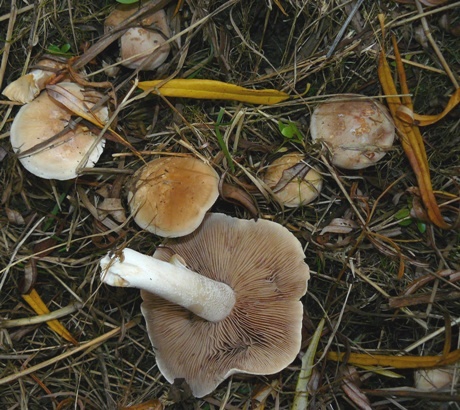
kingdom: Fungi
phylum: Basidiomycota
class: Agaricomycetes
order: Agaricales
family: Hymenogastraceae
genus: Hebeloma
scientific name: Hebeloma aanenii
